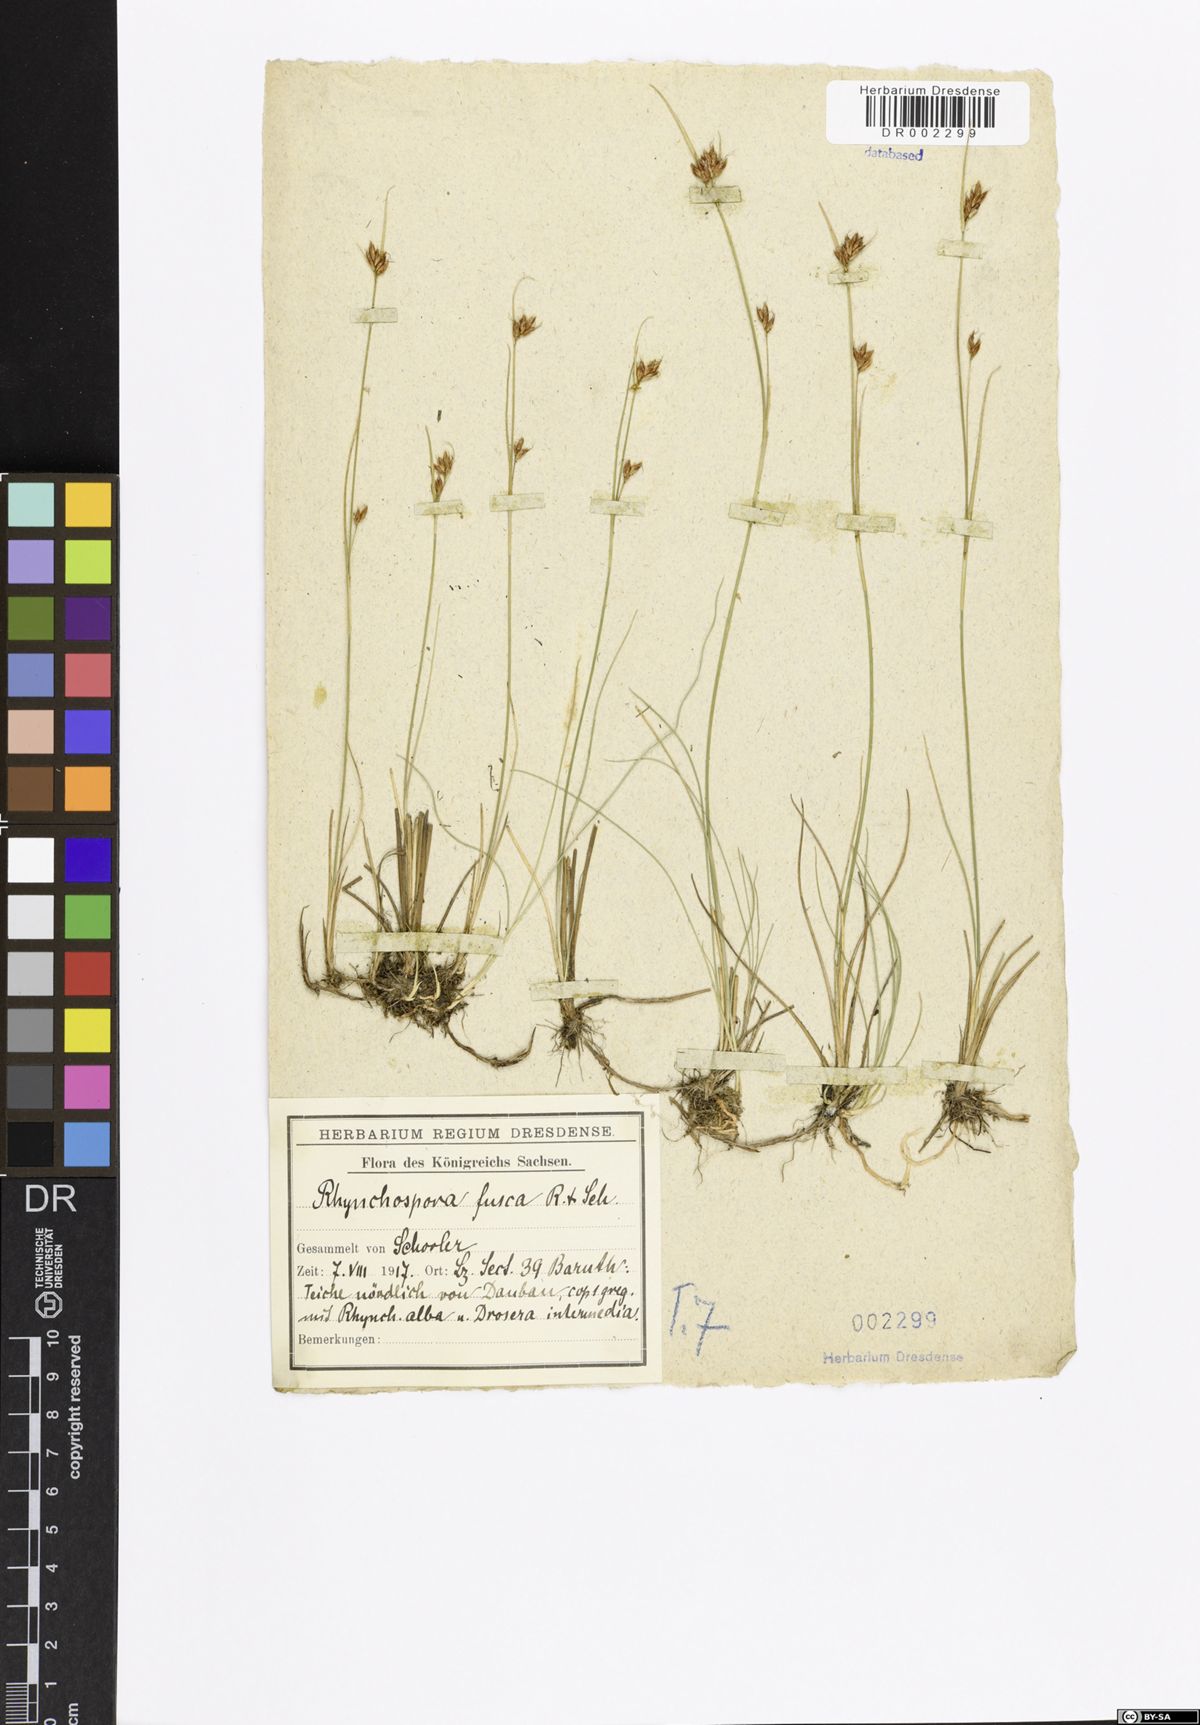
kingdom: Plantae
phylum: Tracheophyta
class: Liliopsida
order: Poales
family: Cyperaceae
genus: Rhynchospora
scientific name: Rhynchospora fusca
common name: Brown beak-sedge
